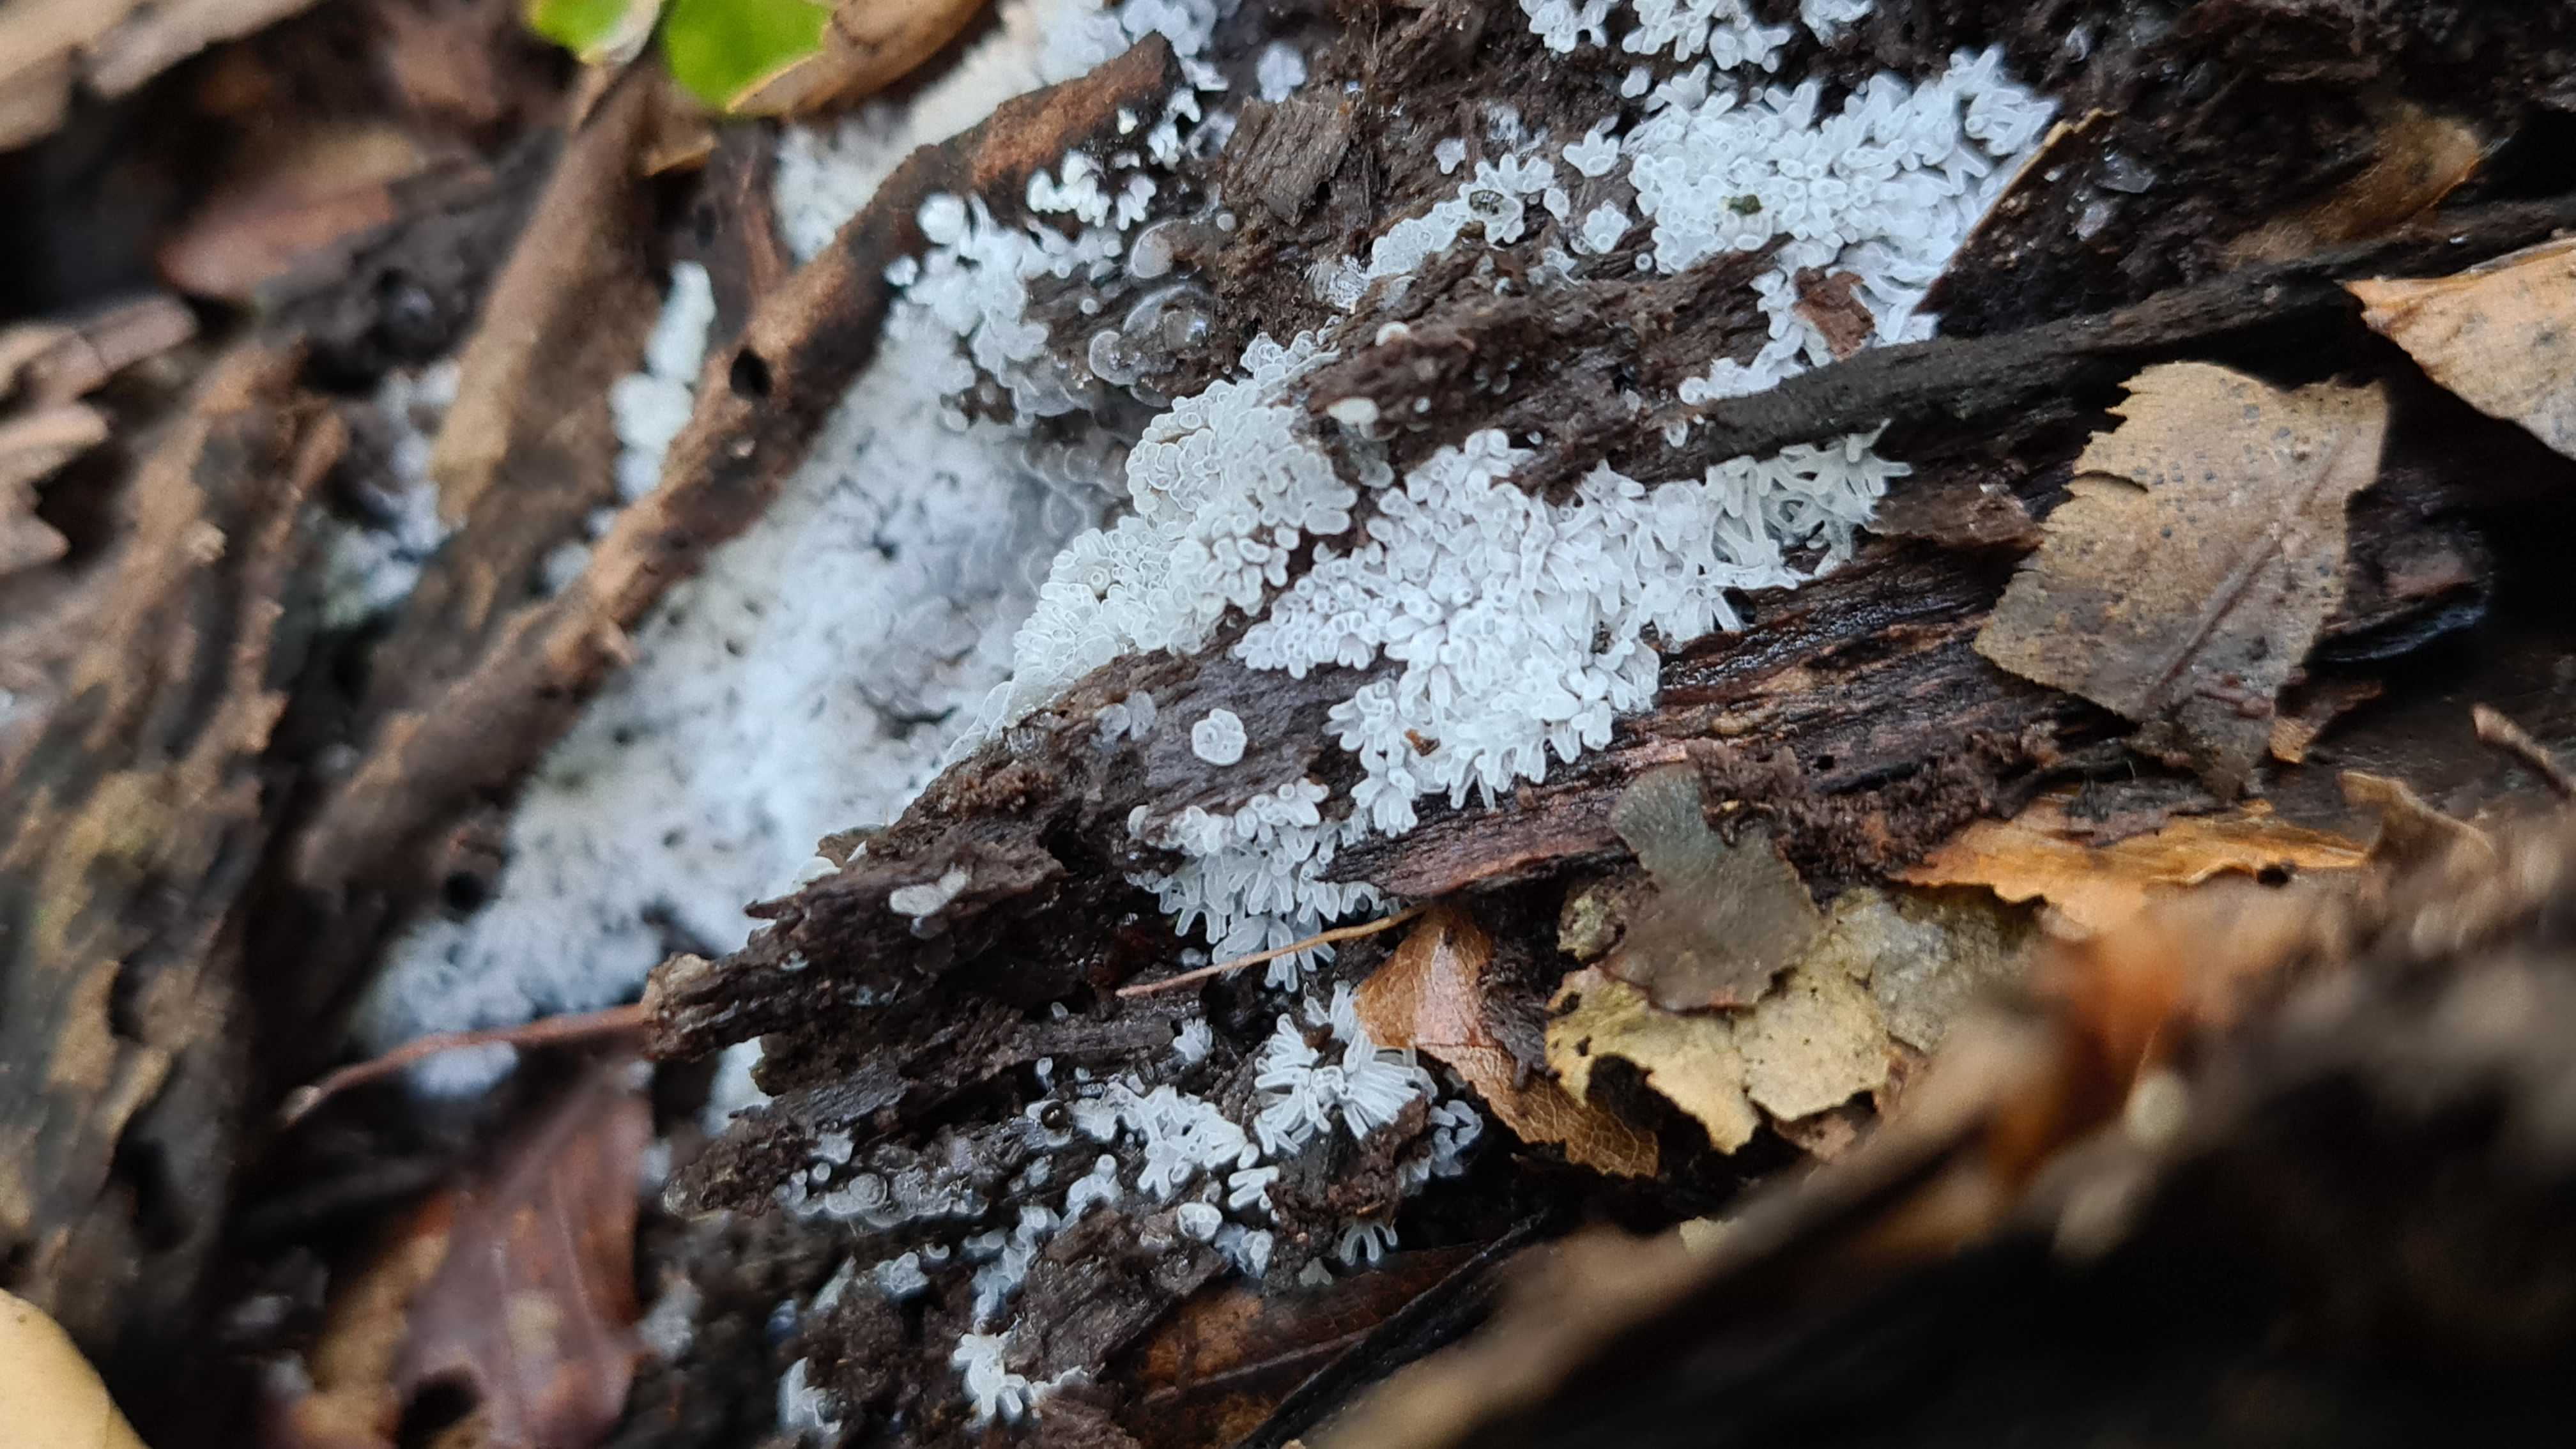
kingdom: Protozoa
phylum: Mycetozoa
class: Protosteliomycetes
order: Ceratiomyxales
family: Ceratiomyxaceae
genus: Ceratiomyxa
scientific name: Ceratiomyxa fruticulosa
